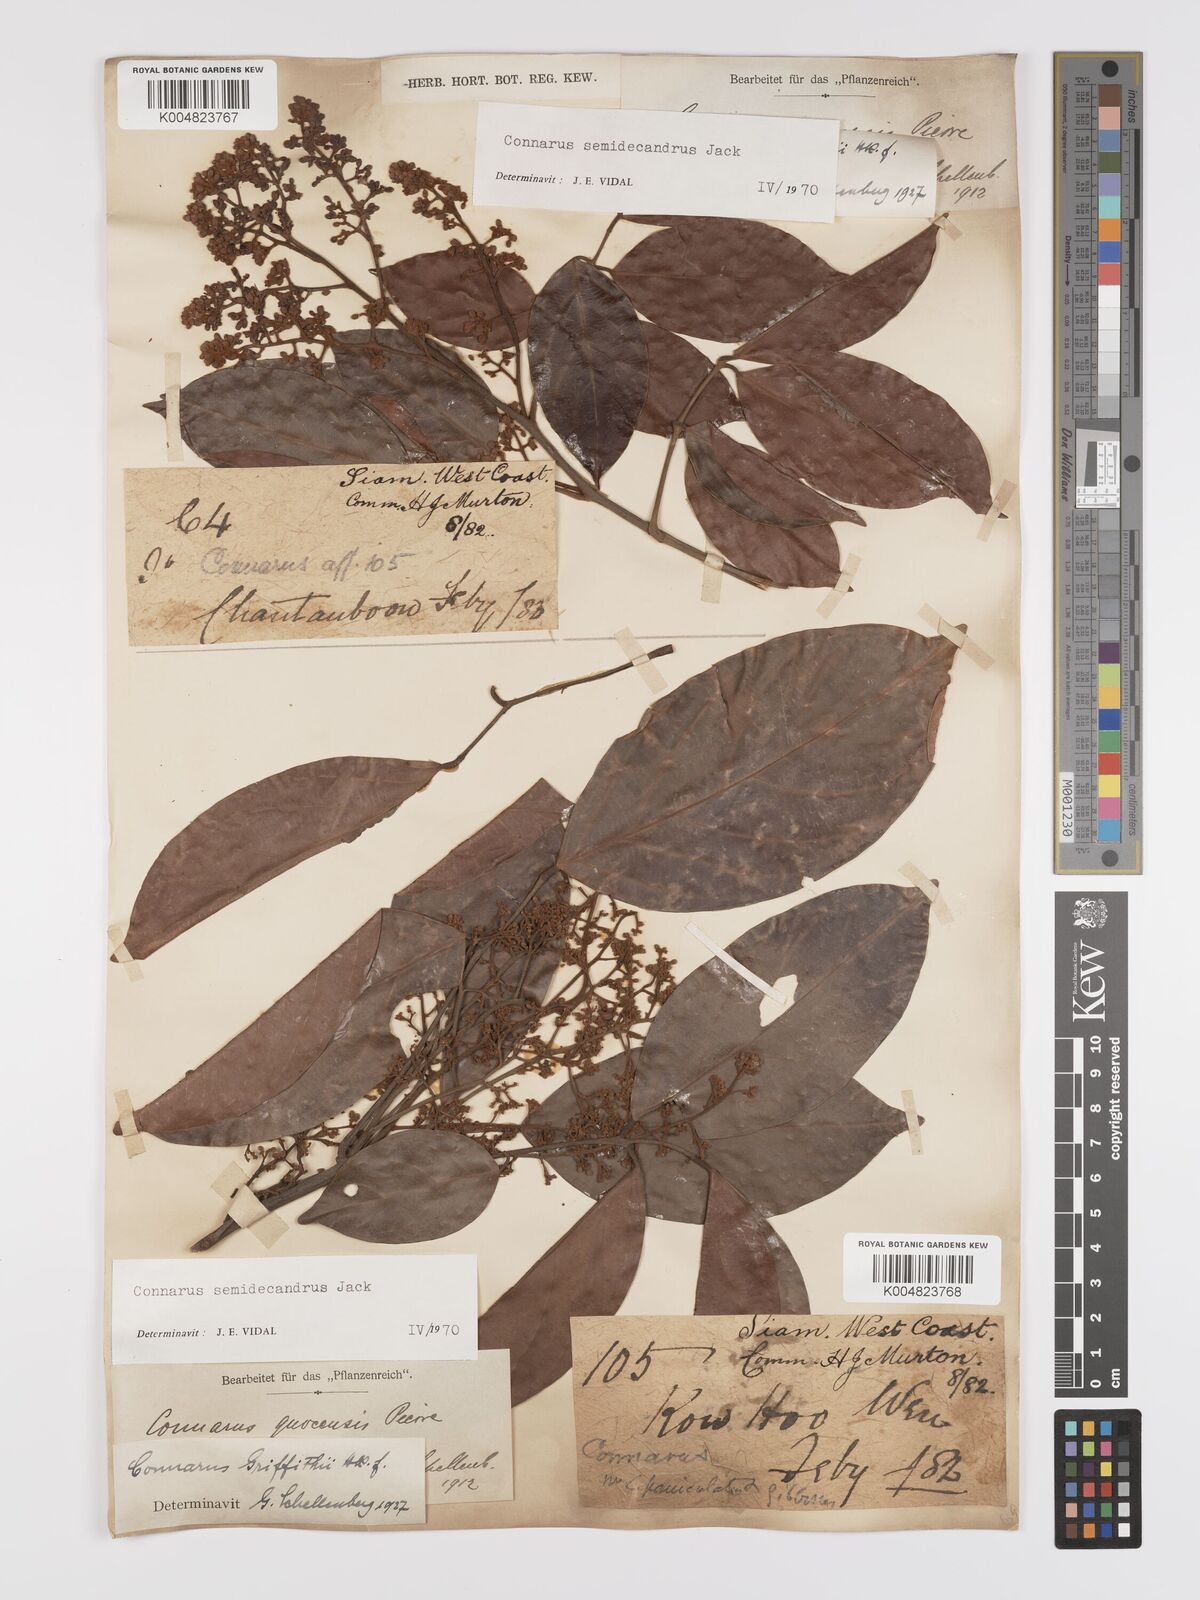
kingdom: Plantae
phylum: Tracheophyta
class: Magnoliopsida
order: Oxalidales
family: Connaraceae
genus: Connarus
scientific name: Connarus semidecandrus
